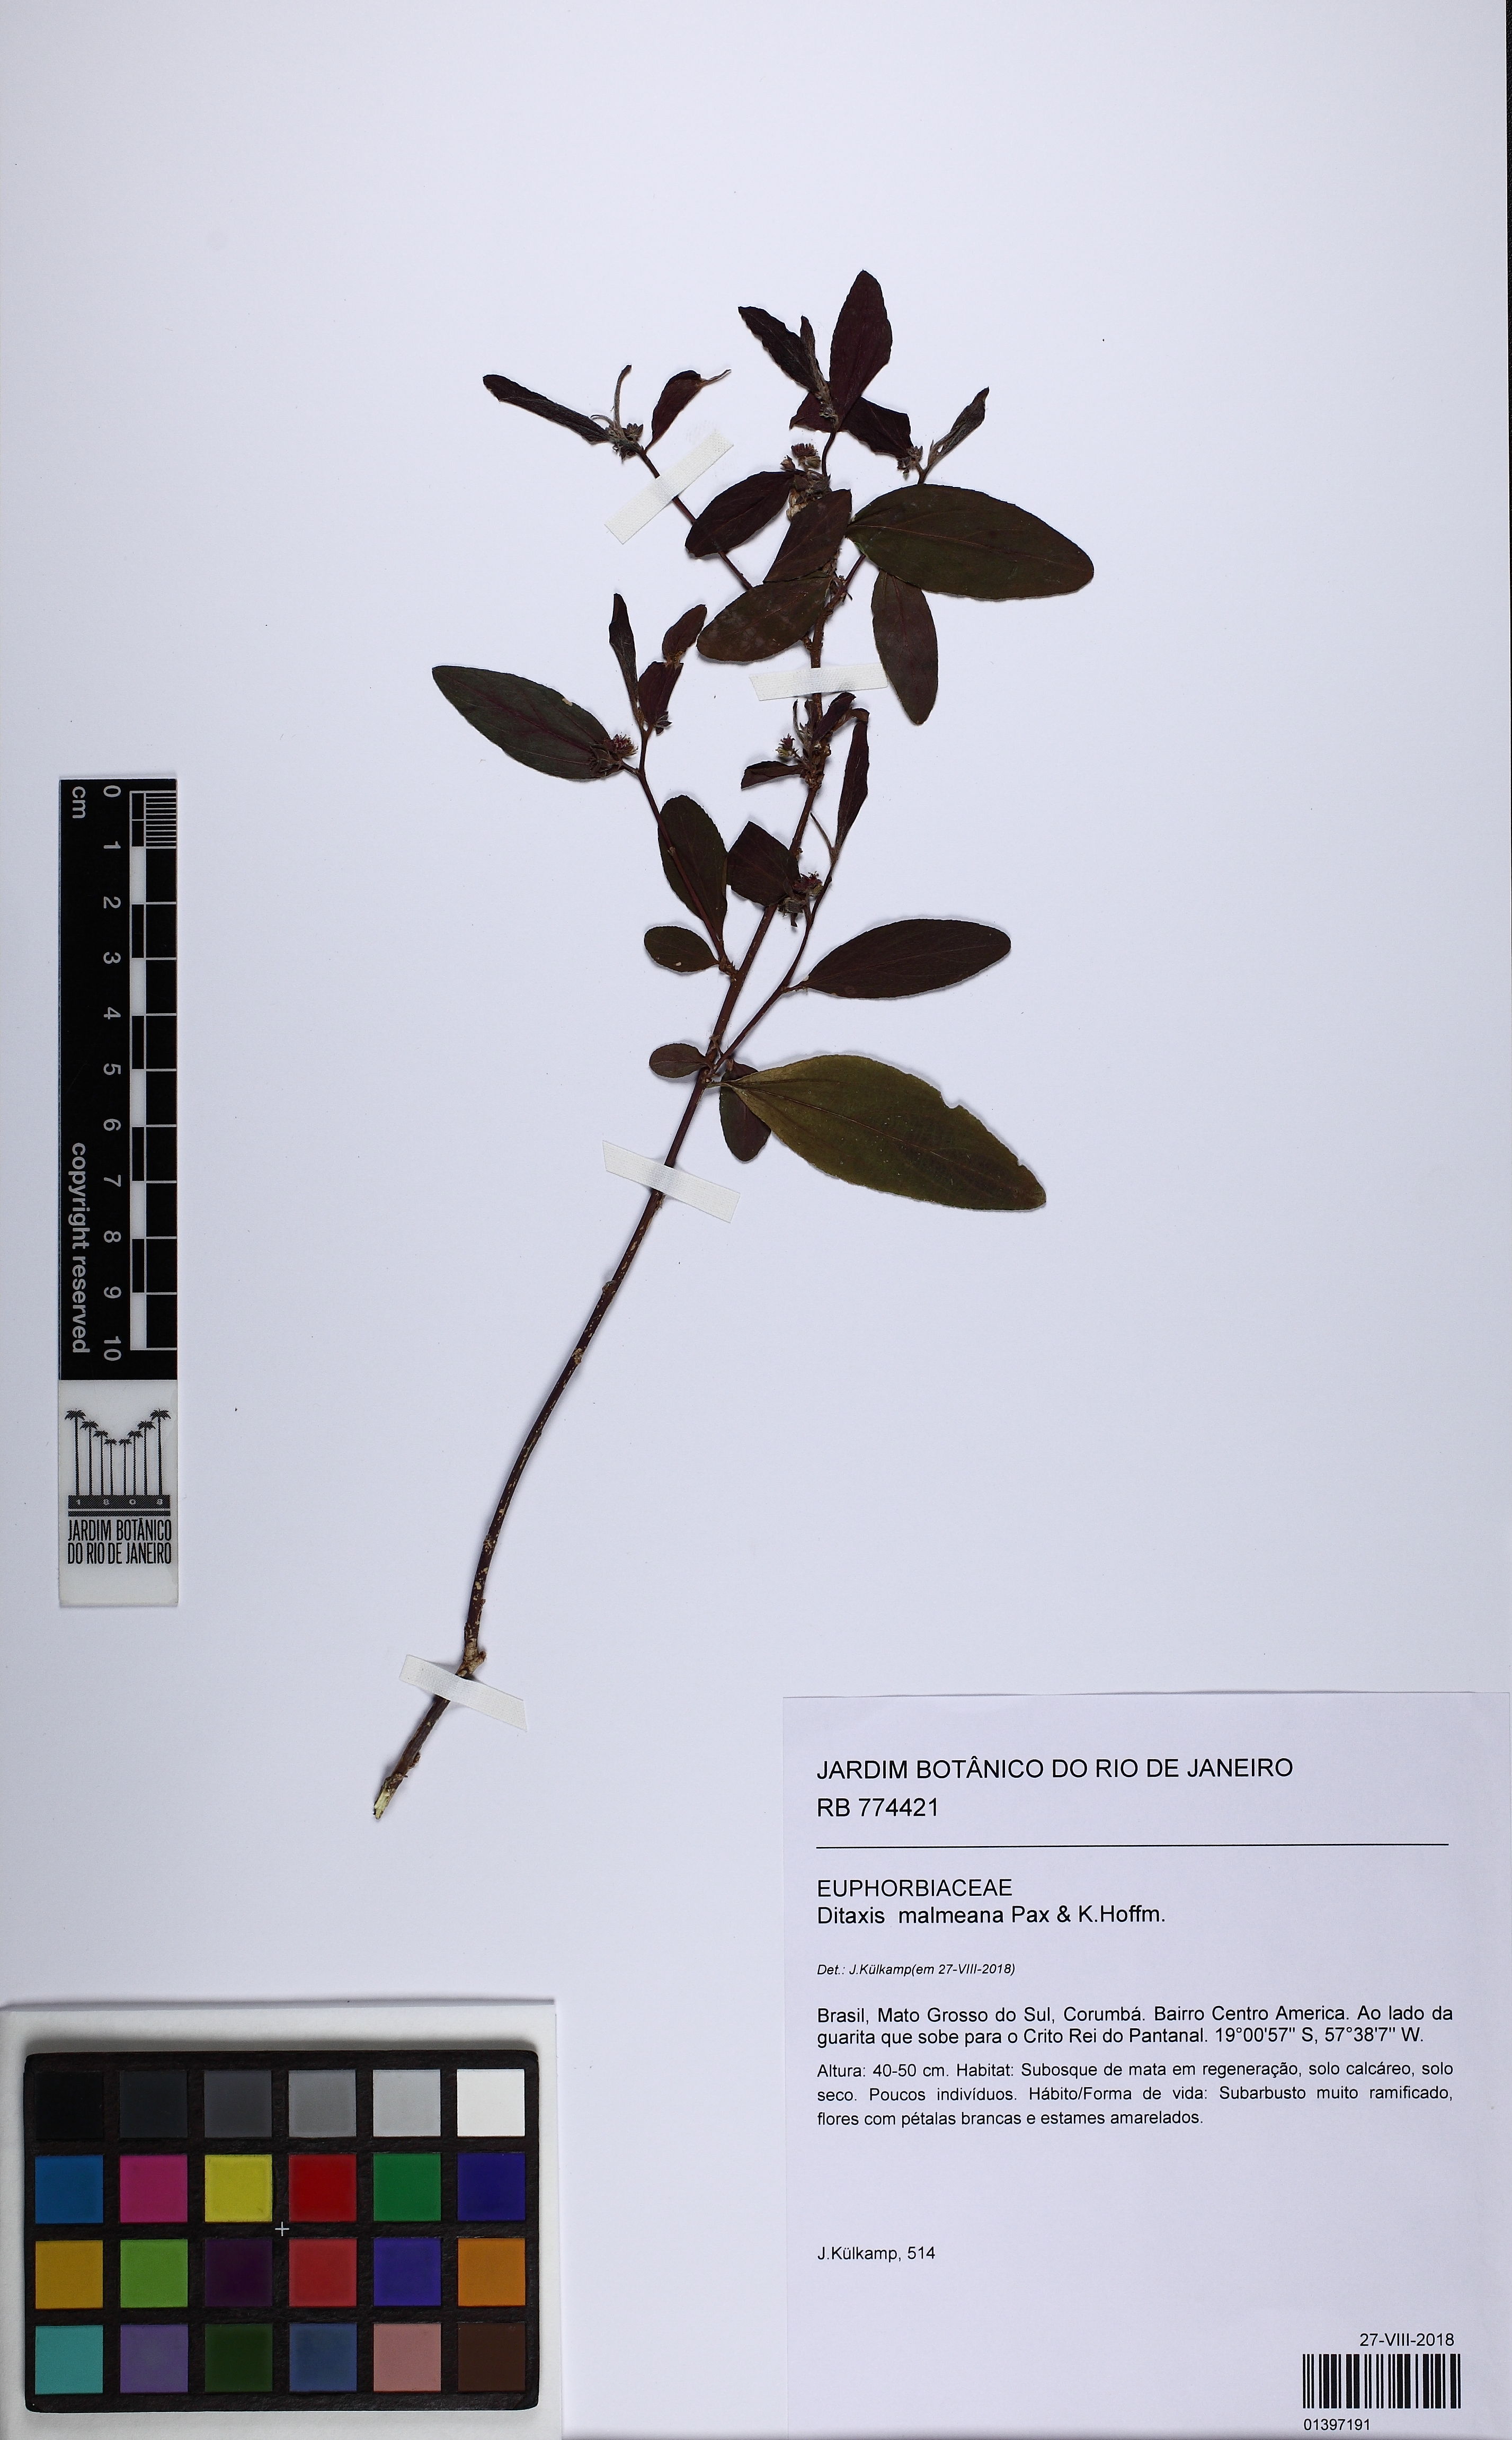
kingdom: Plantae
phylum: Tracheophyta
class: Magnoliopsida
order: Malpighiales
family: Euphorbiaceae
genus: Ditaxis
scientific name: Ditaxis malmeana
